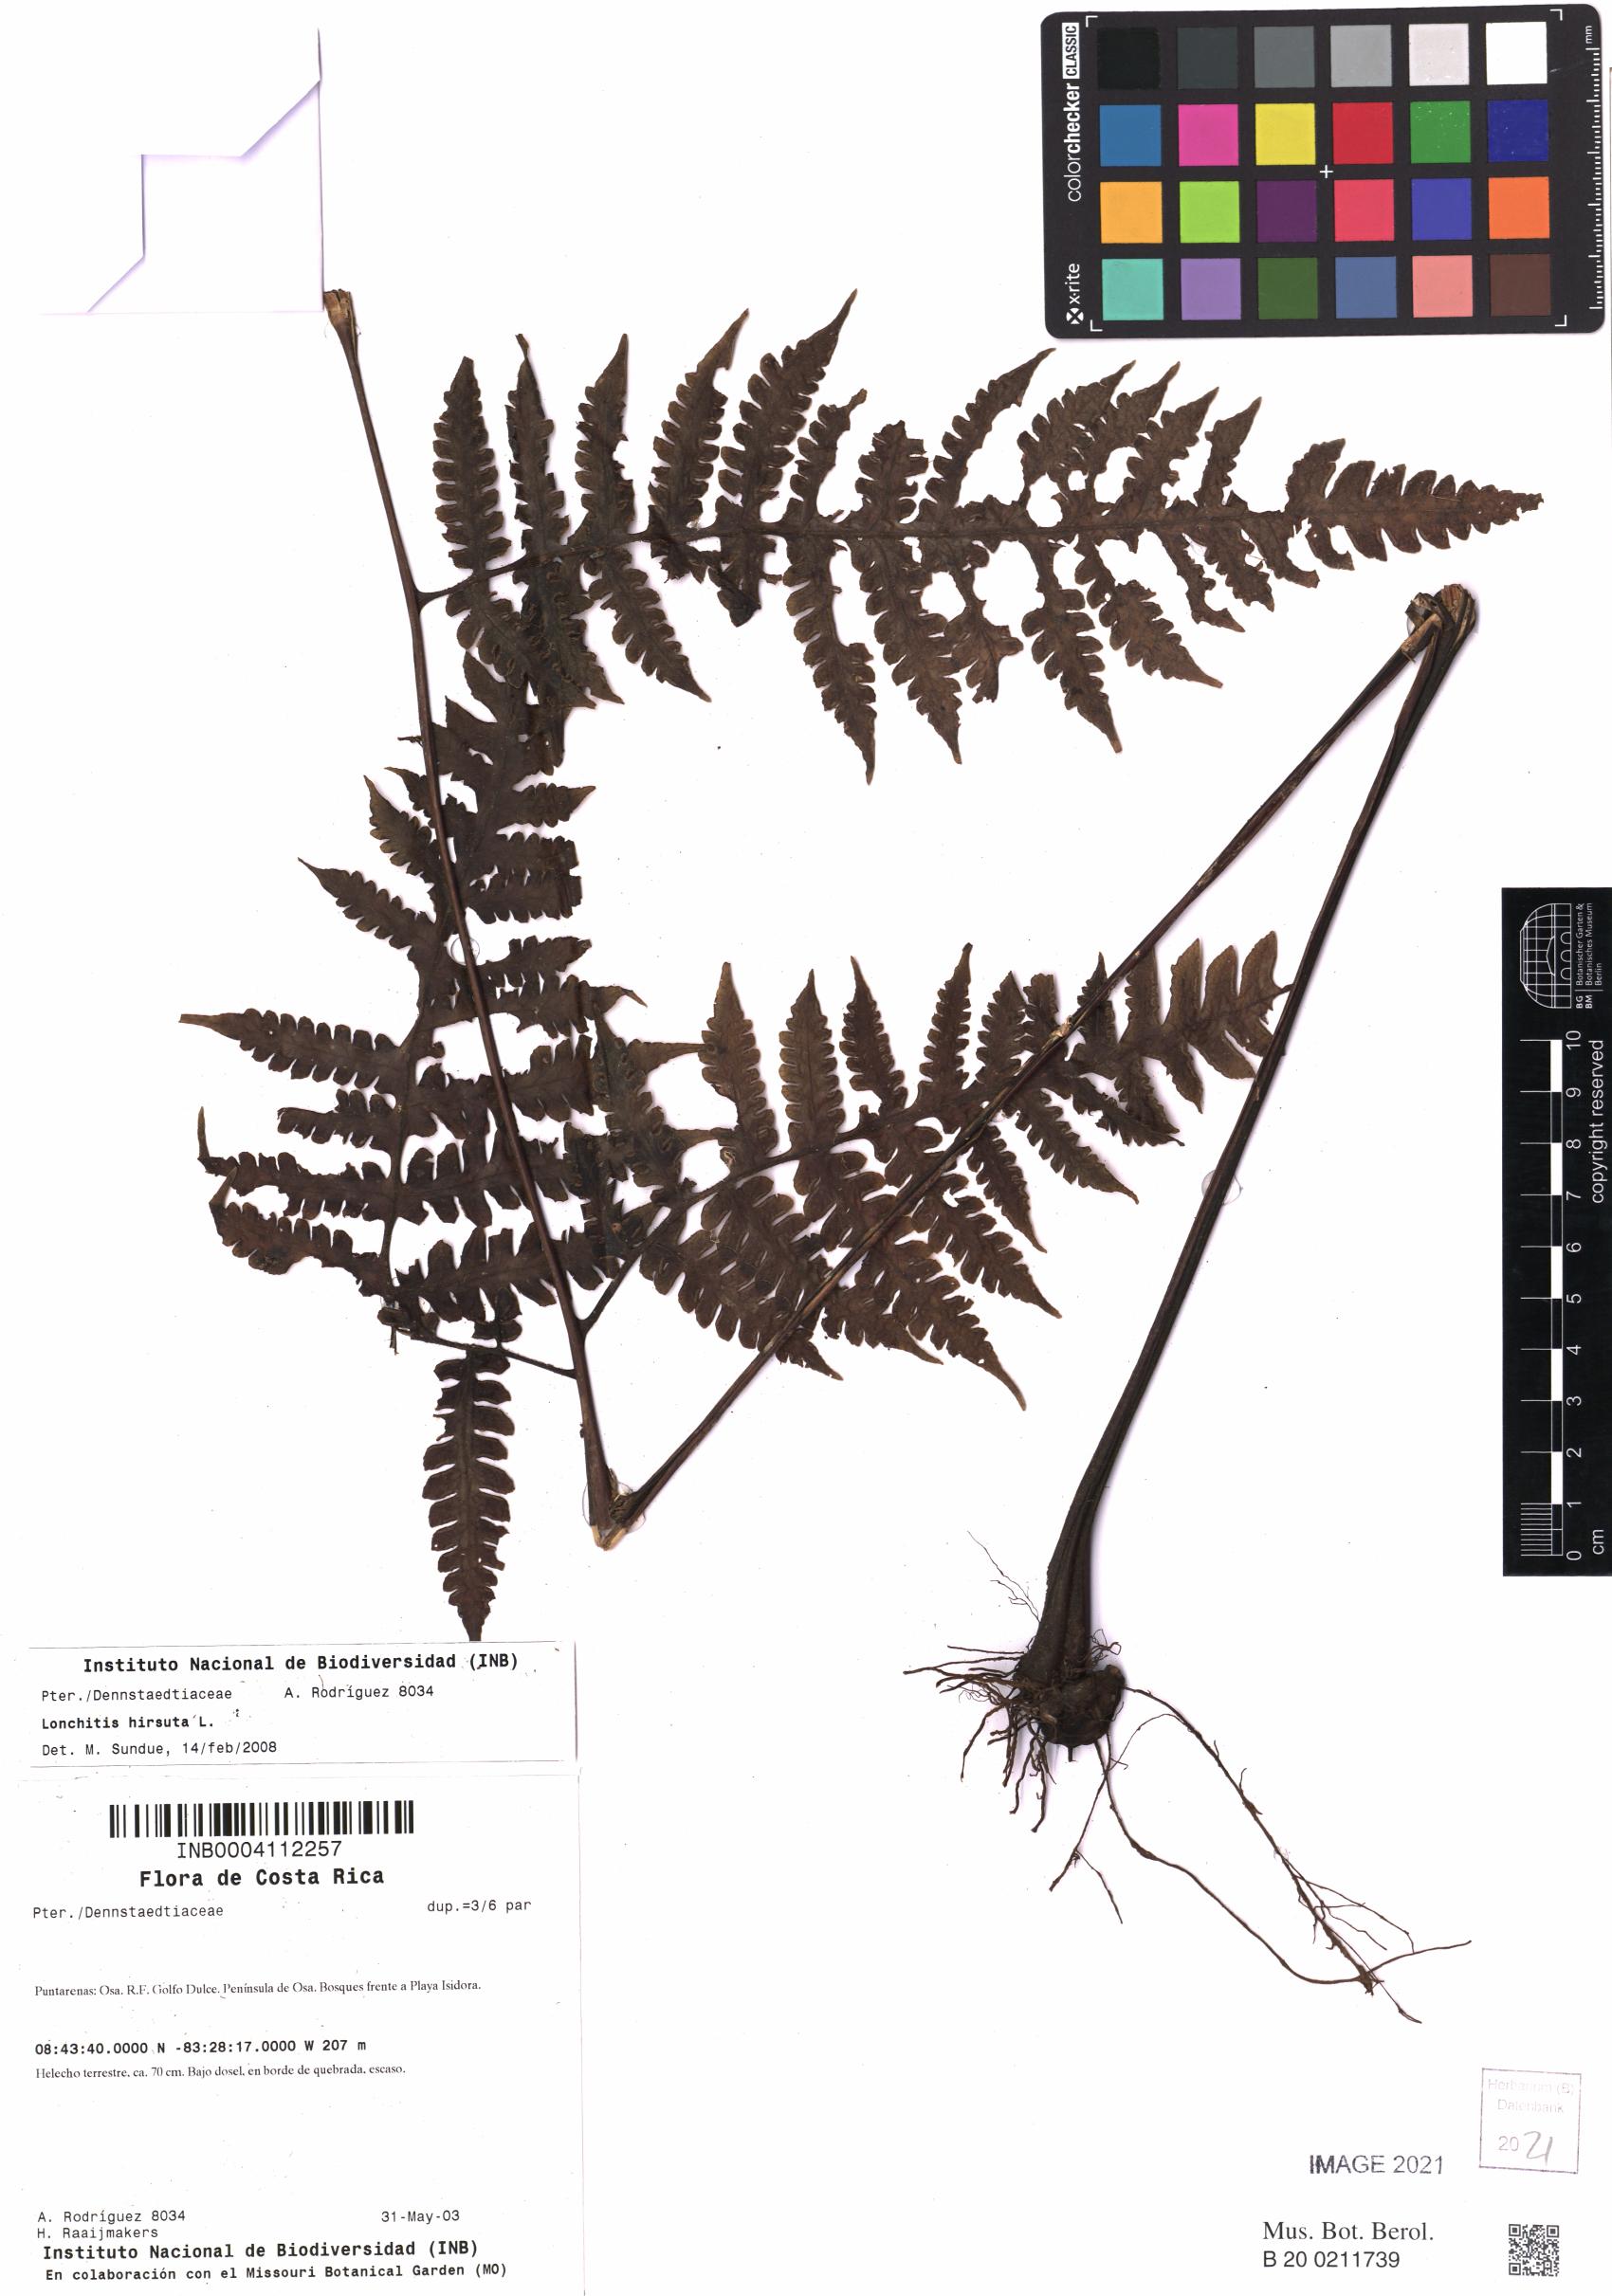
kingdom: Plantae
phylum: Tracheophyta
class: Polypodiopsida
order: Polypodiales
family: Lonchitidaceae
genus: Lonchitis
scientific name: Lonchitis hirsuta
